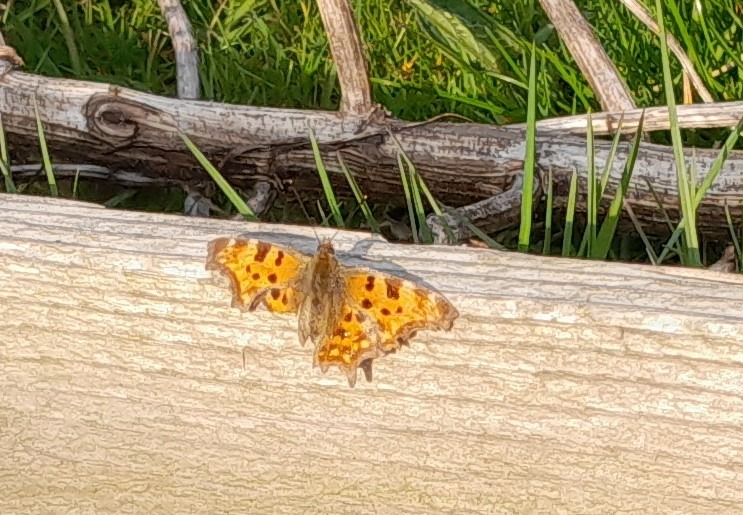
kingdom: Animalia
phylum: Arthropoda
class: Insecta
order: Lepidoptera
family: Nymphalidae
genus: Polygonia
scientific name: Polygonia c-album
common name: Det hvide C
